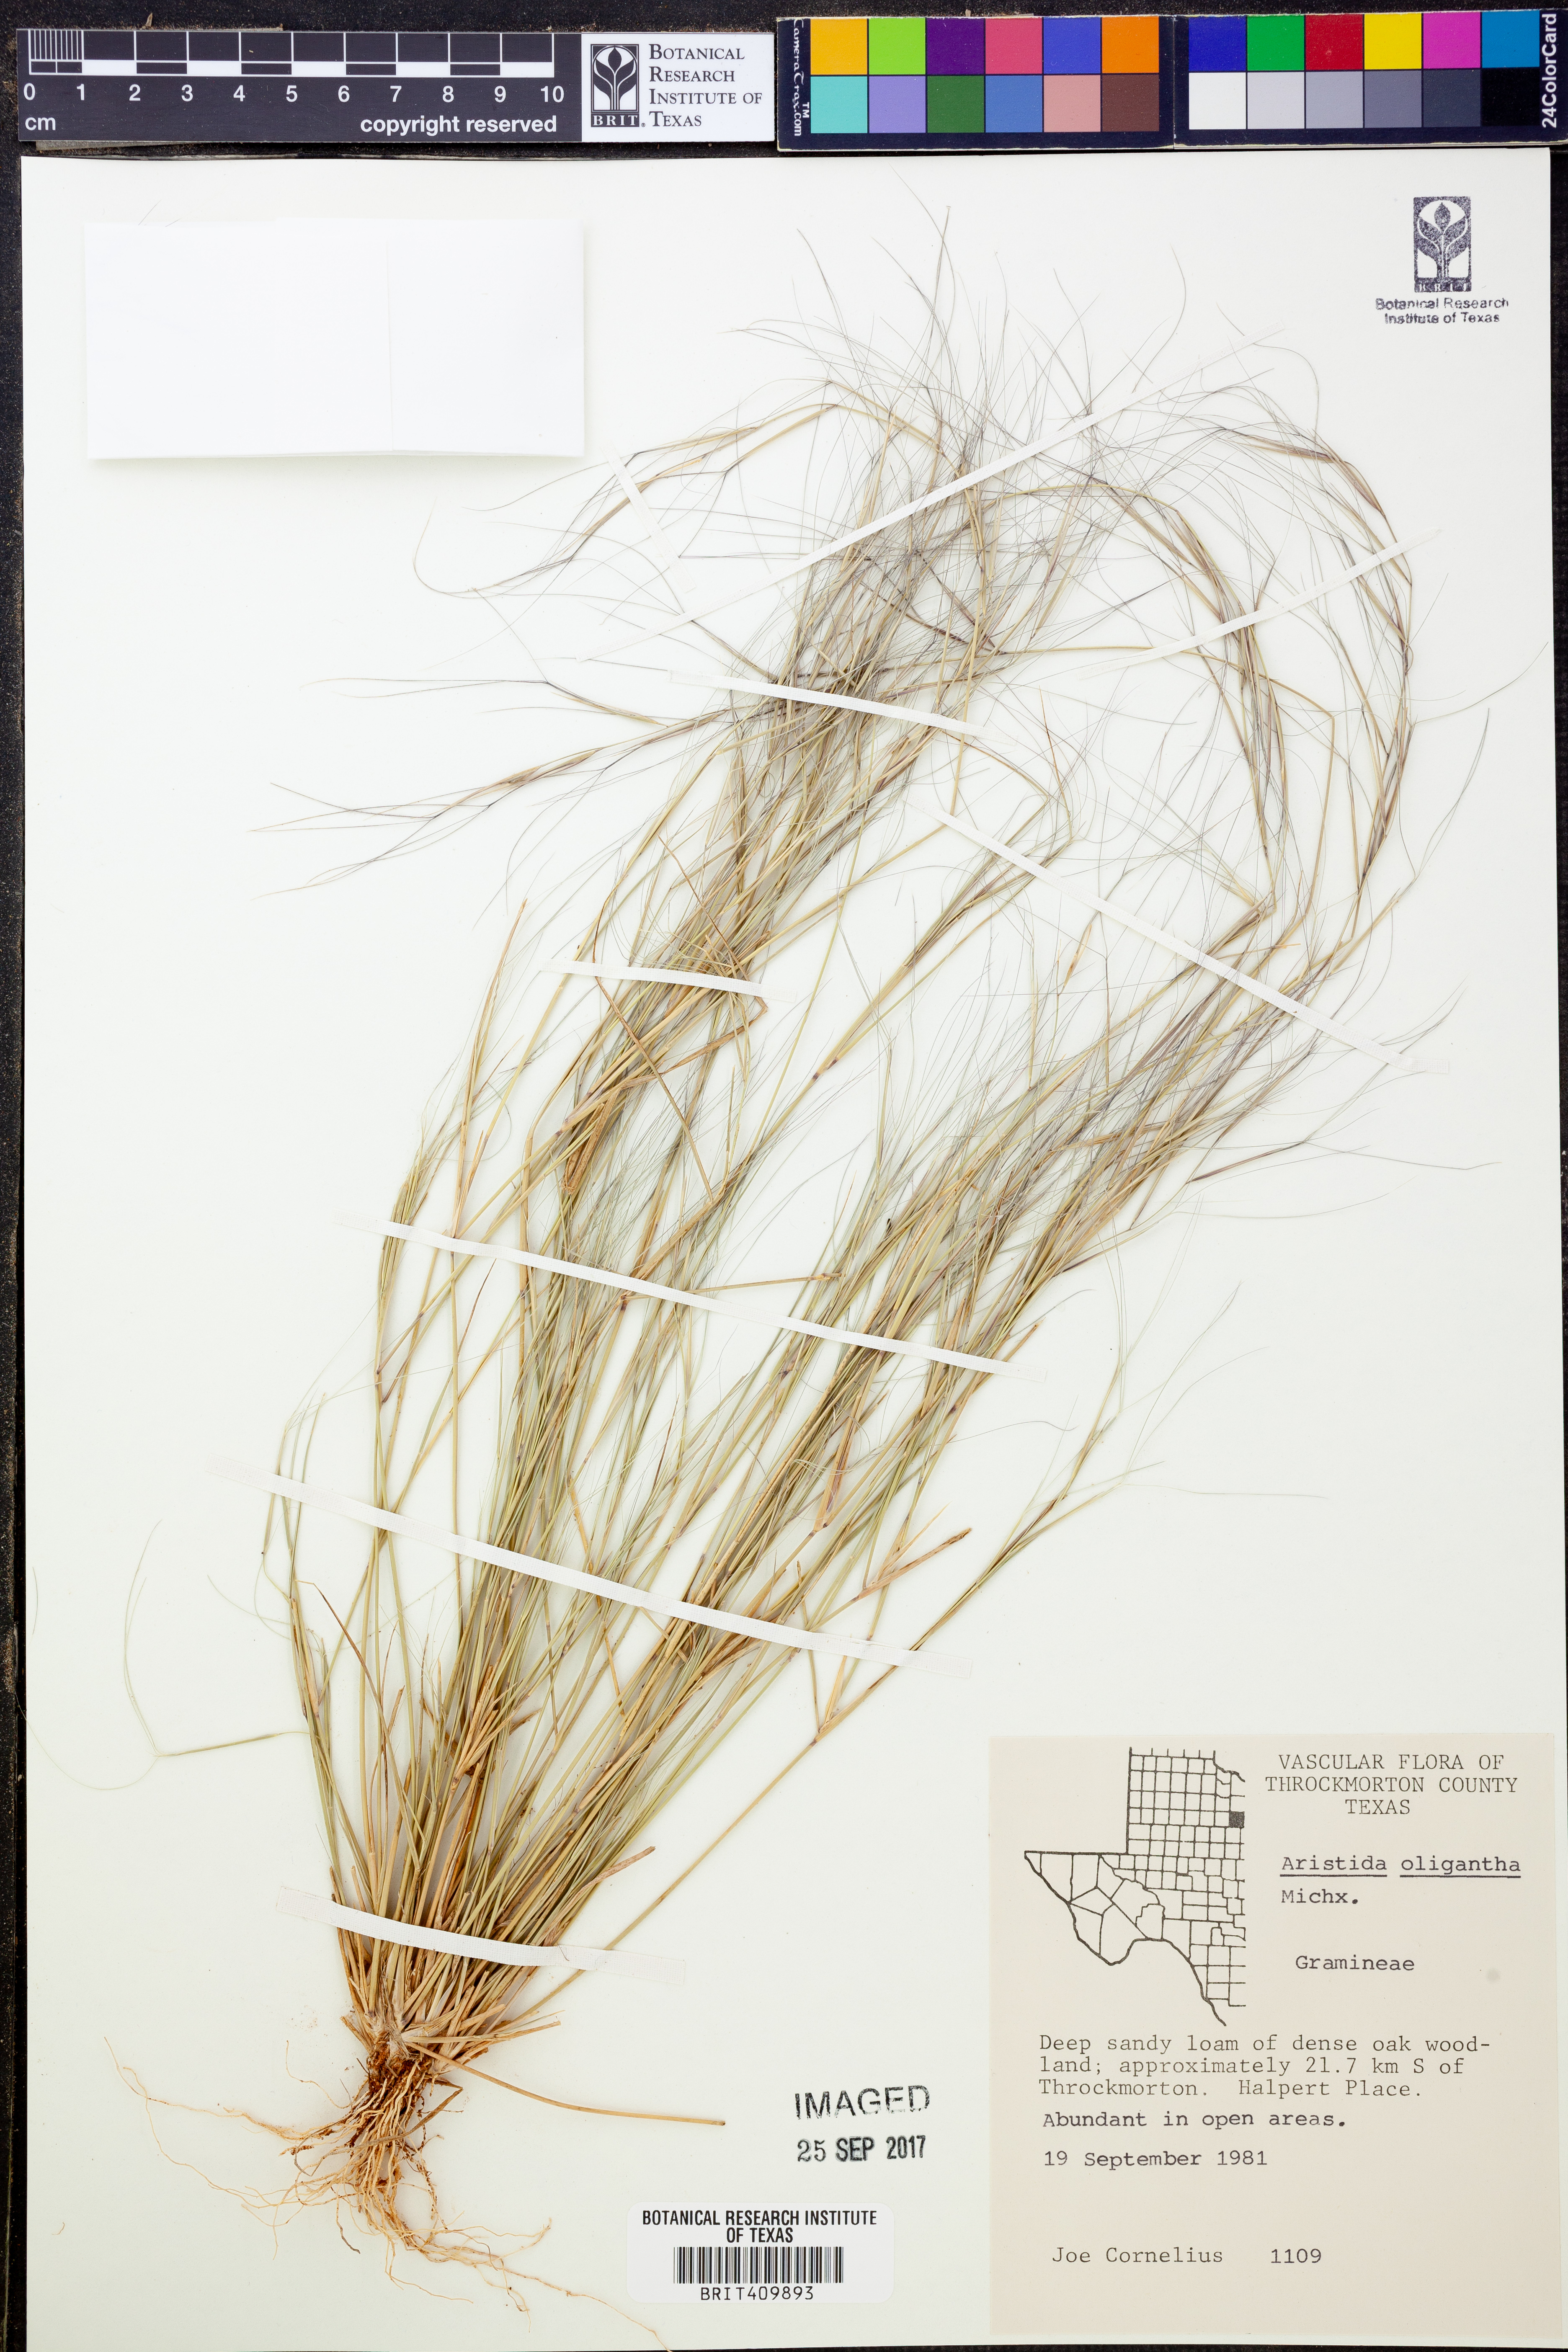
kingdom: Plantae
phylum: Tracheophyta
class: Liliopsida
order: Poales
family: Poaceae
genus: Aristida
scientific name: Aristida oligantha
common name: Few-flowered aristida
